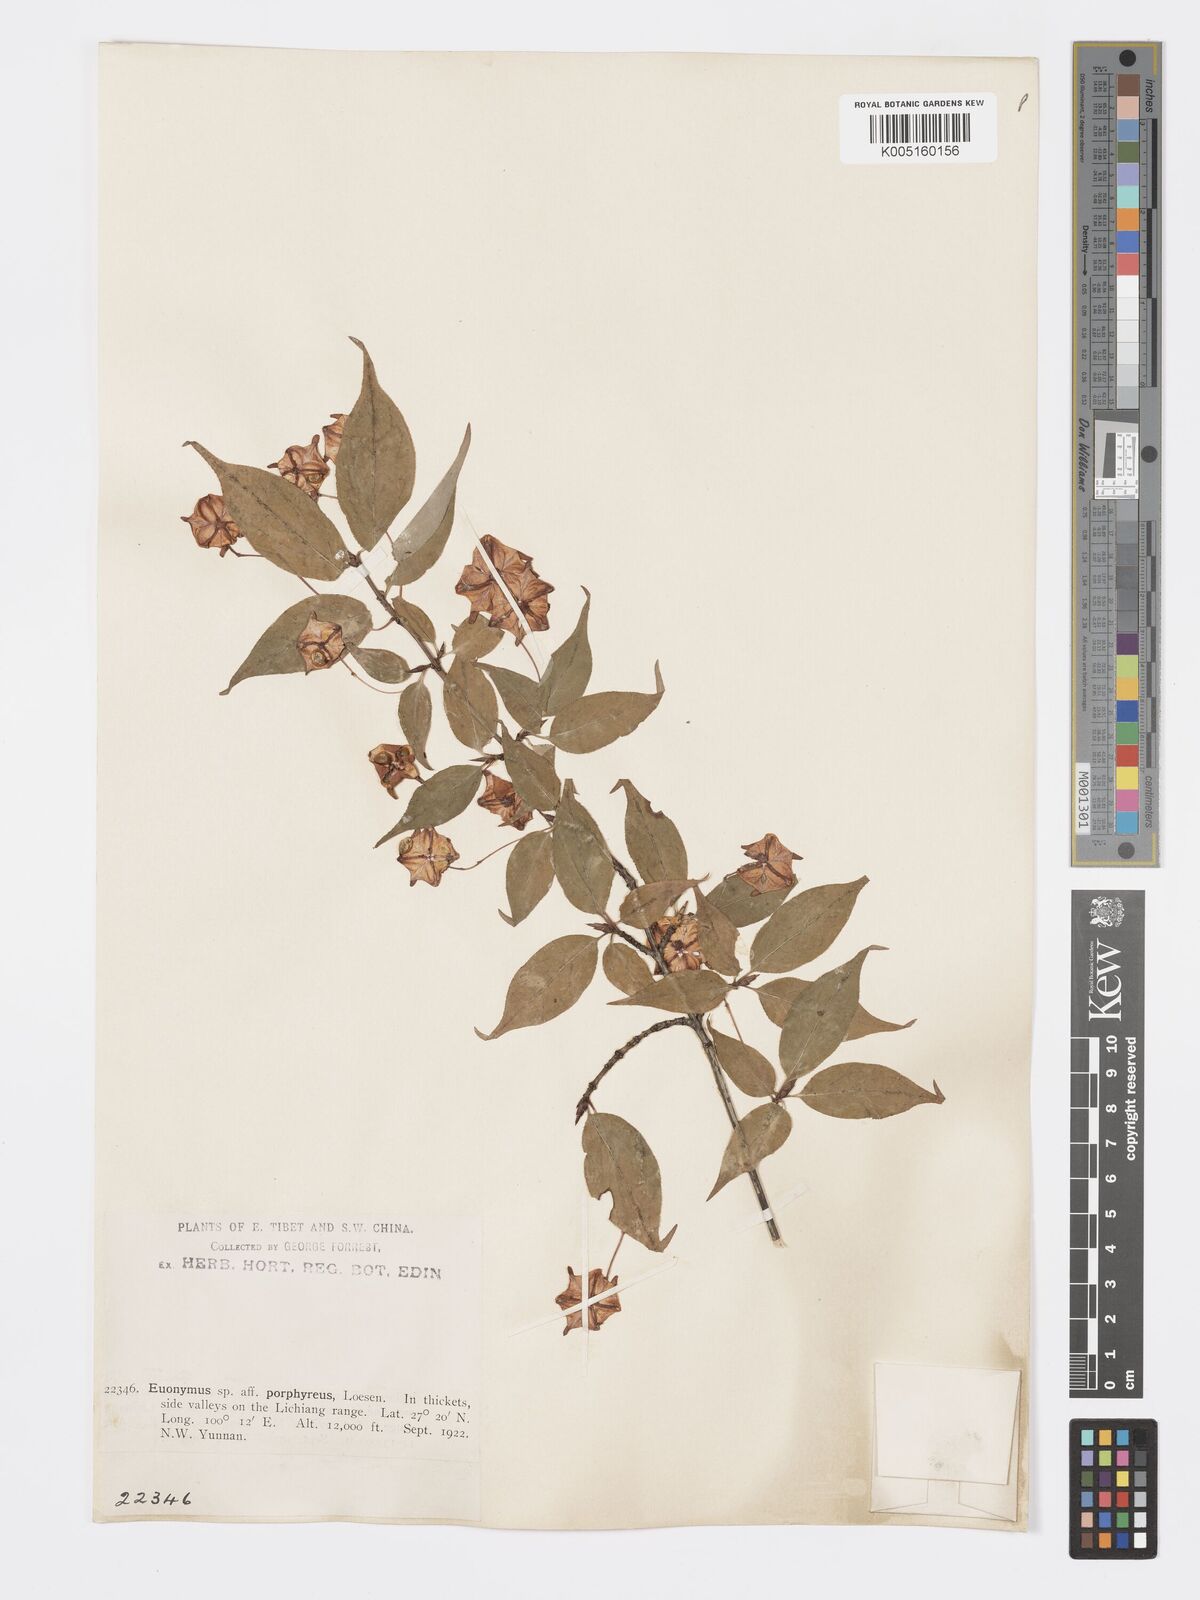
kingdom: Plantae
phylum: Tracheophyta
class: Magnoliopsida
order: Celastrales
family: Celastraceae
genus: Euonymus
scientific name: Euonymus frigidus
